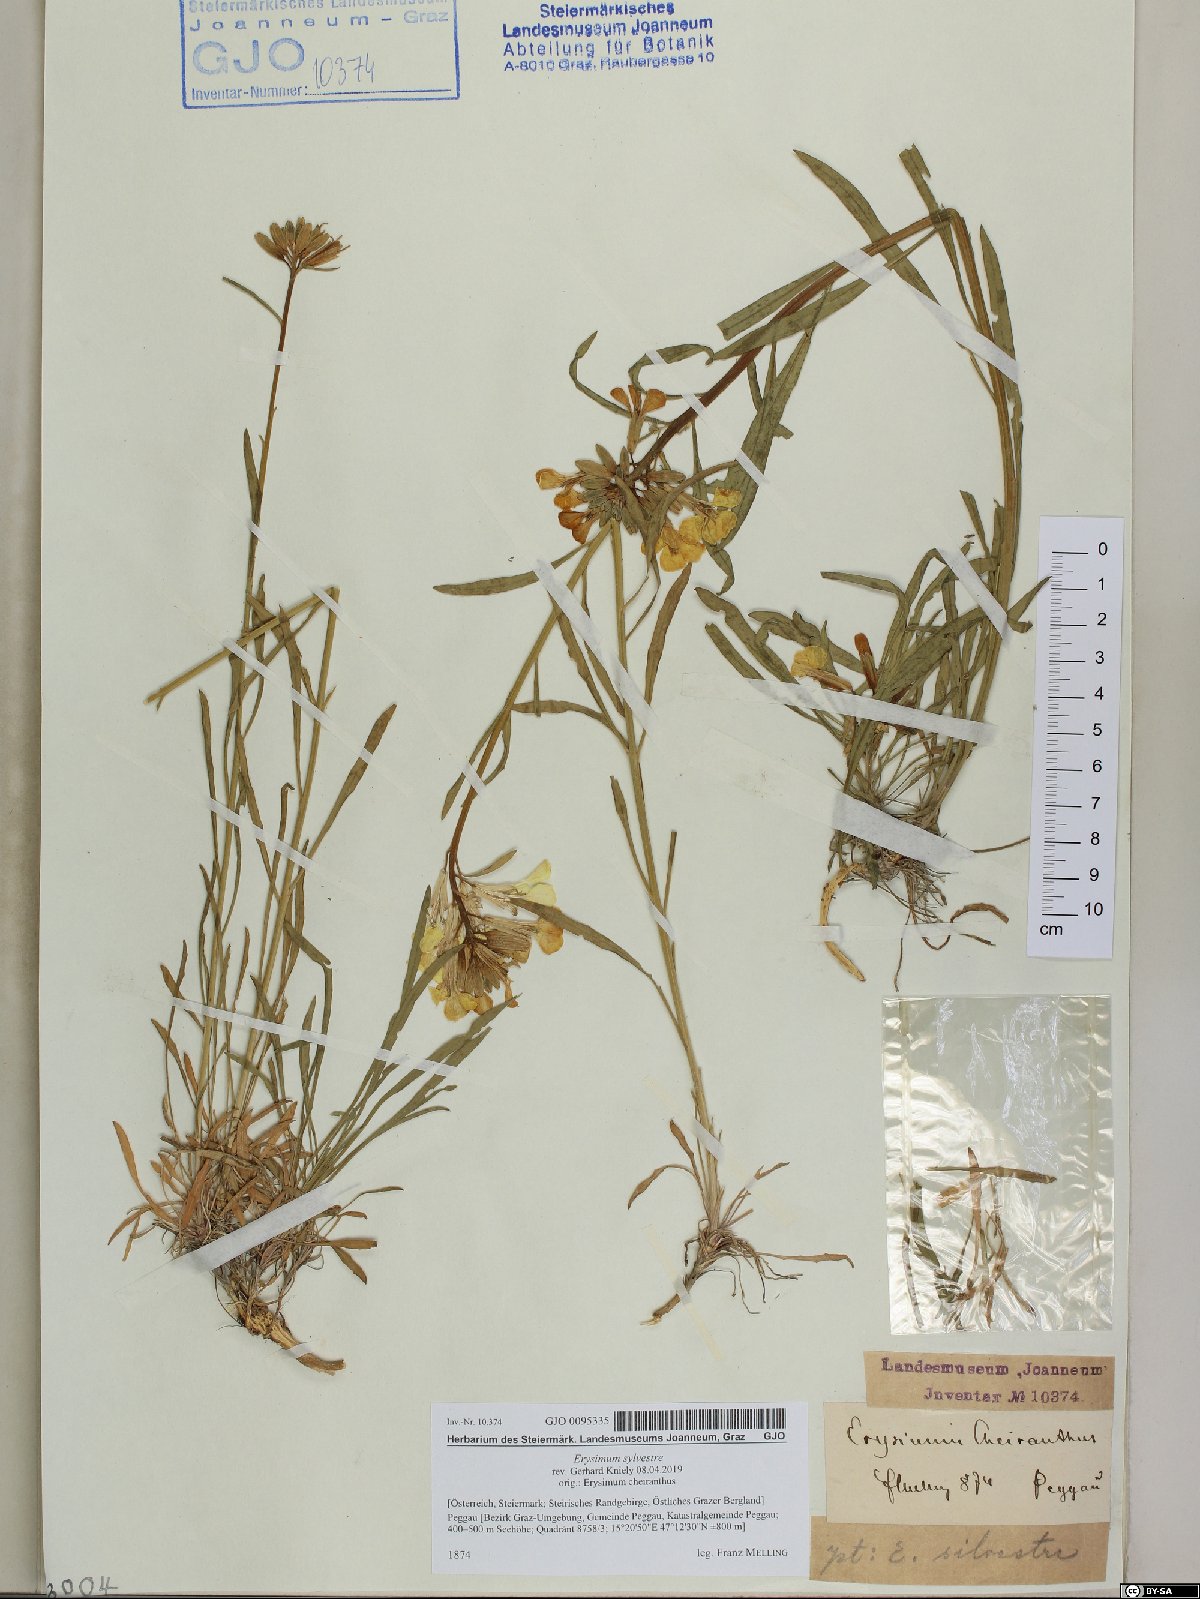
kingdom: Plantae
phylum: Tracheophyta
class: Magnoliopsida
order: Brassicales
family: Brassicaceae
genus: Erysimum
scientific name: Erysimum sylvestre
